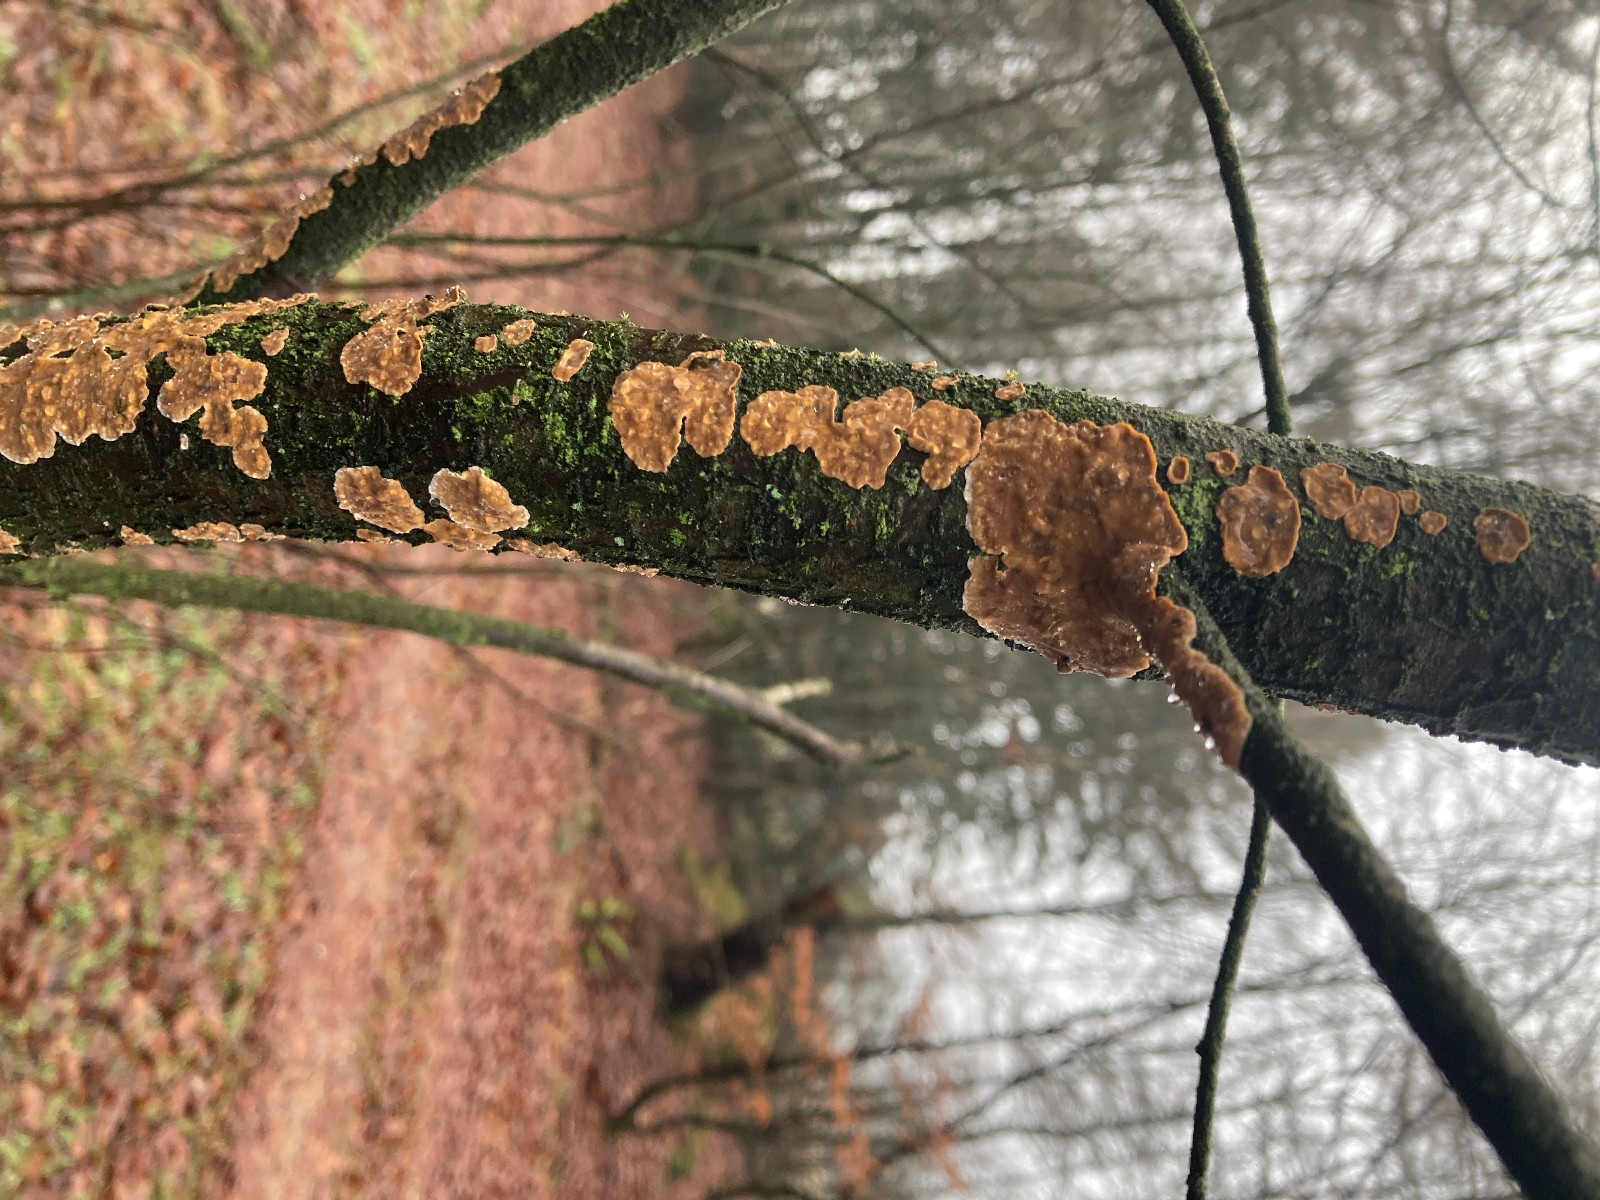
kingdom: Fungi
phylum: Basidiomycota
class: Agaricomycetes
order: Corticiales
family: Corticiaceae
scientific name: Corticiaceae
